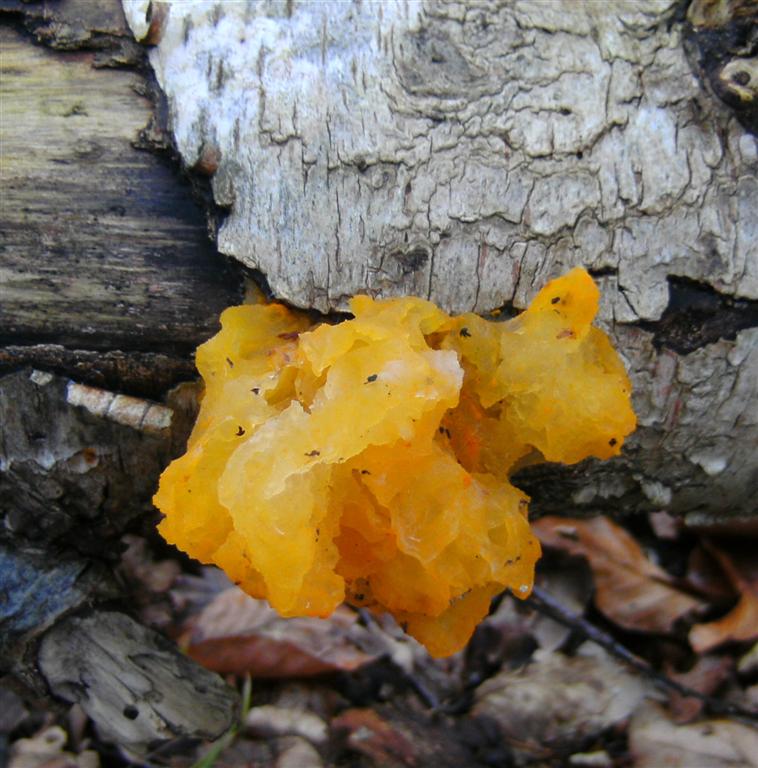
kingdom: Fungi
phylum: Basidiomycota
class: Tremellomycetes
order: Tremellales
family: Tremellaceae
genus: Tremella
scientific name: Tremella mesenterica
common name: gul bævresvamp
